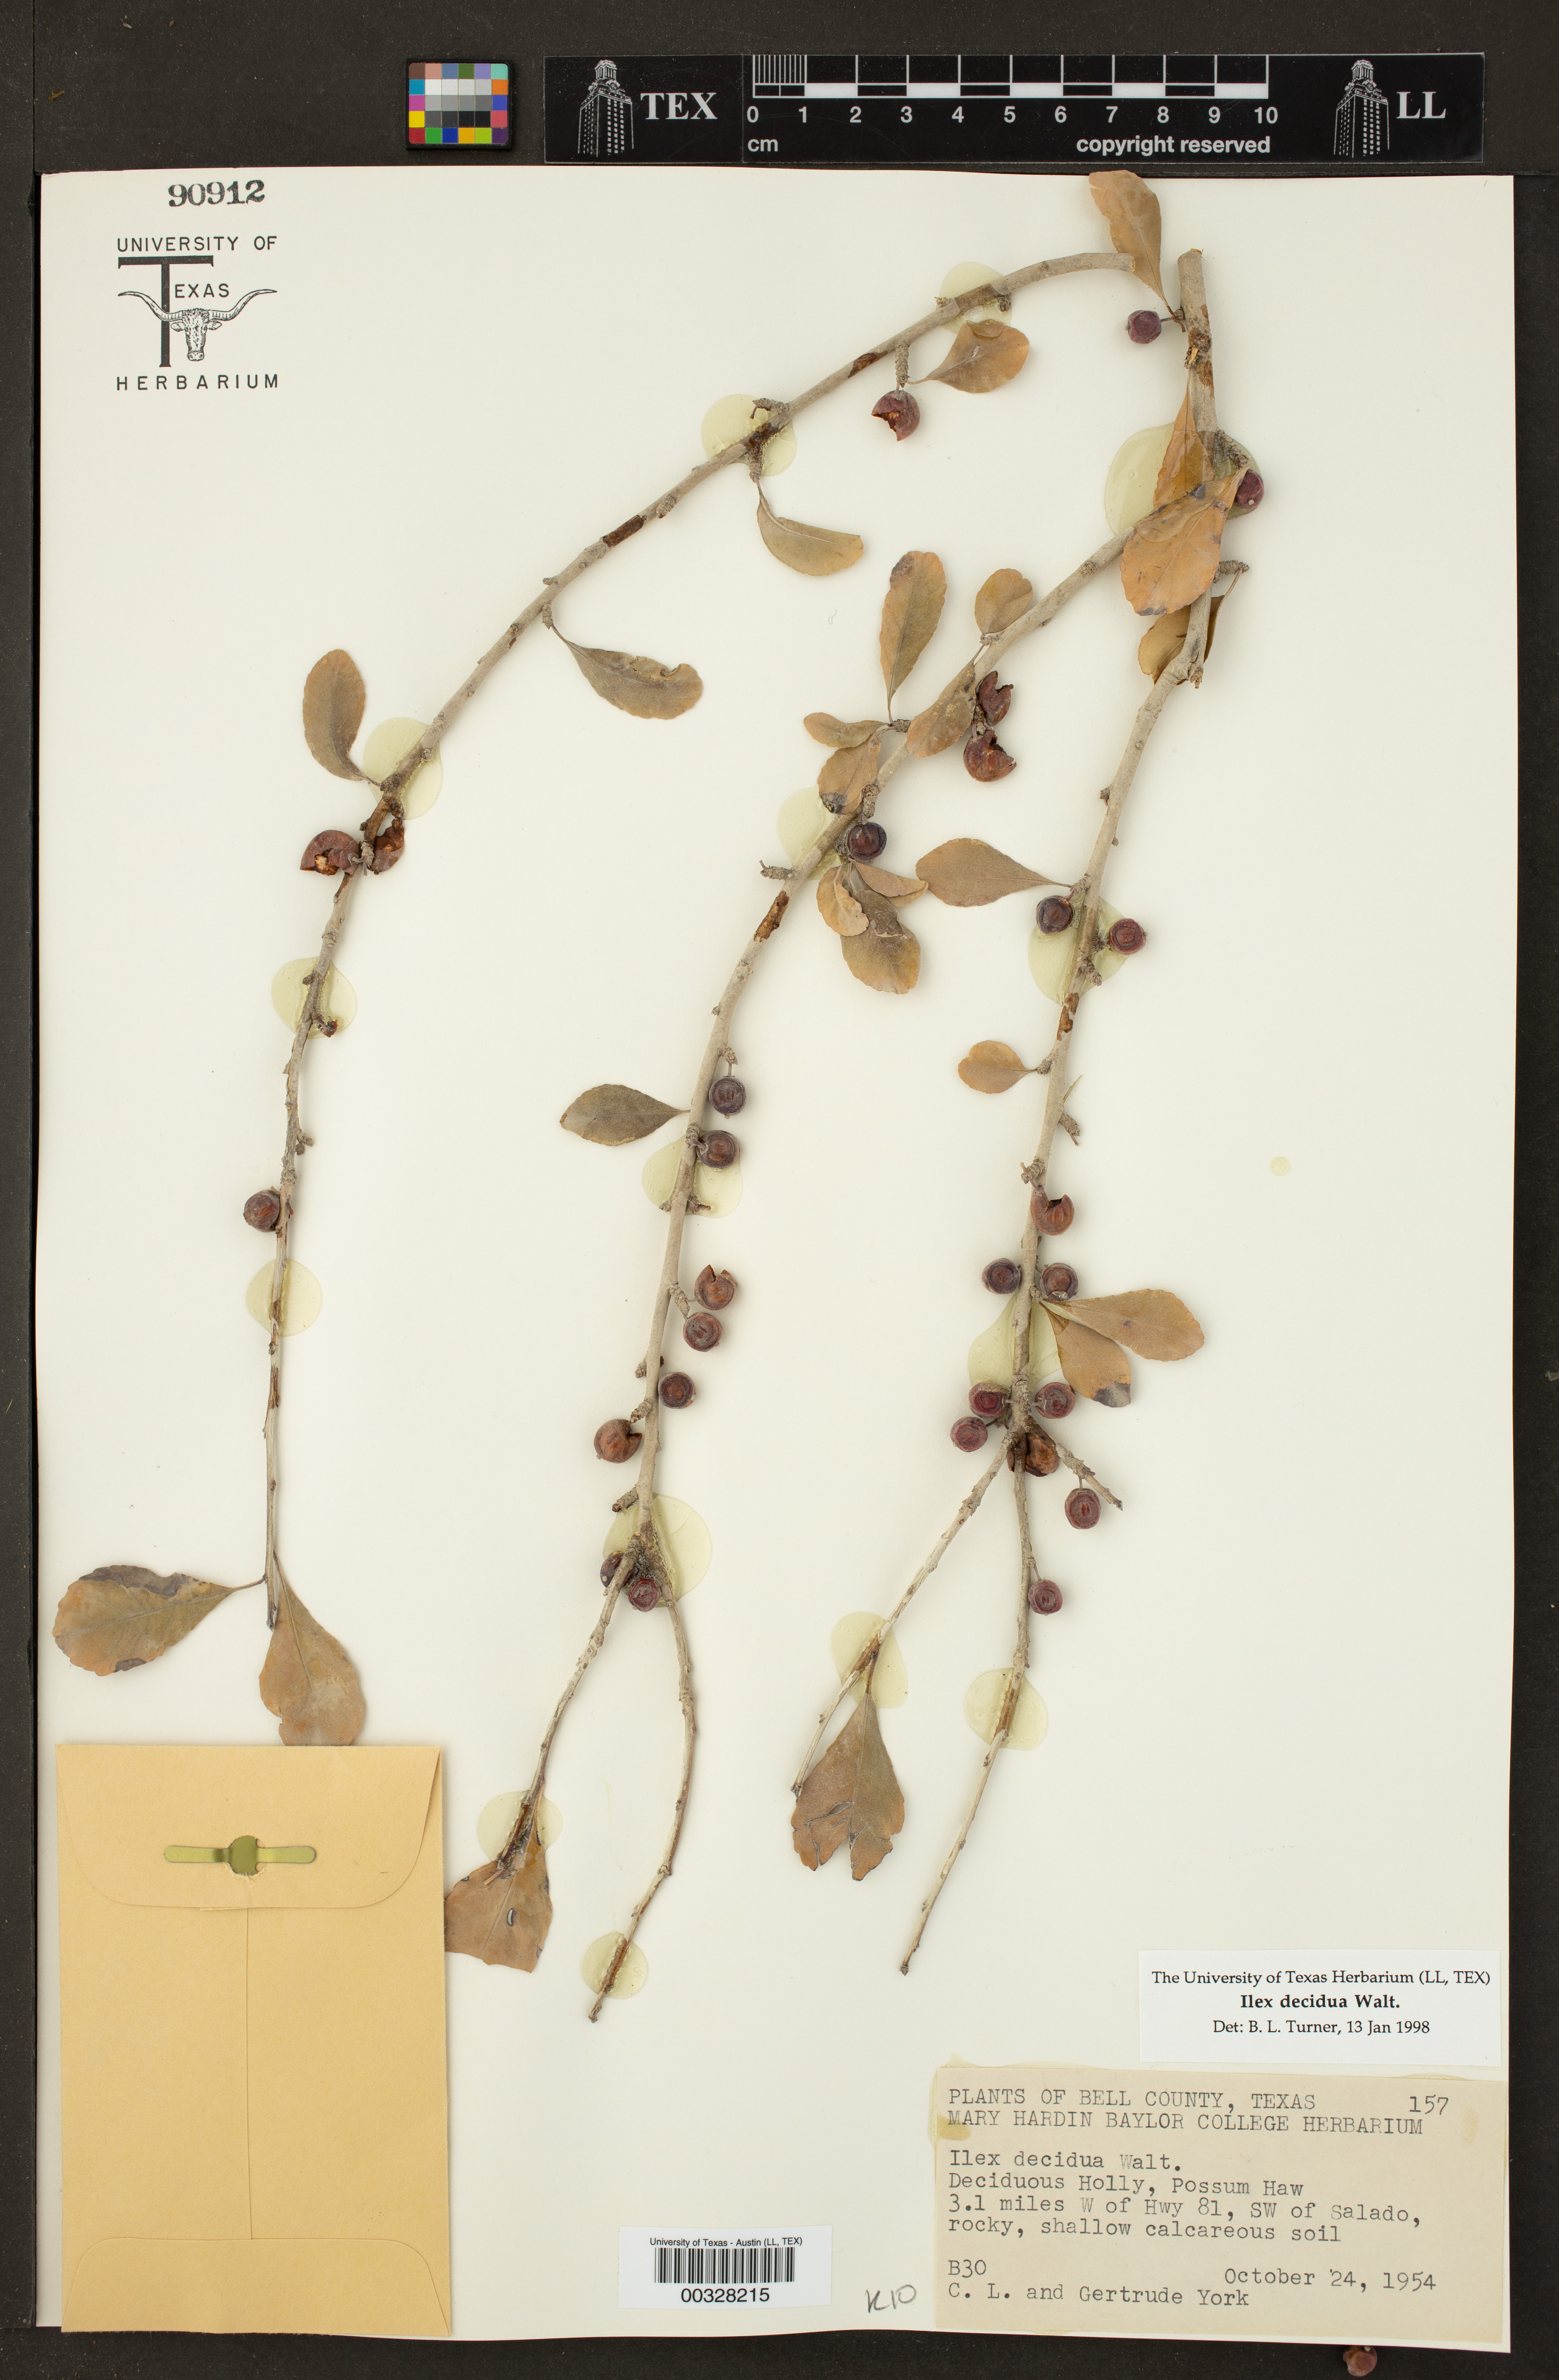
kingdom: Plantae
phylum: Tracheophyta
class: Magnoliopsida
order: Aquifoliales
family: Aquifoliaceae
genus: Ilex
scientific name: Ilex decidua
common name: Possum-haw
